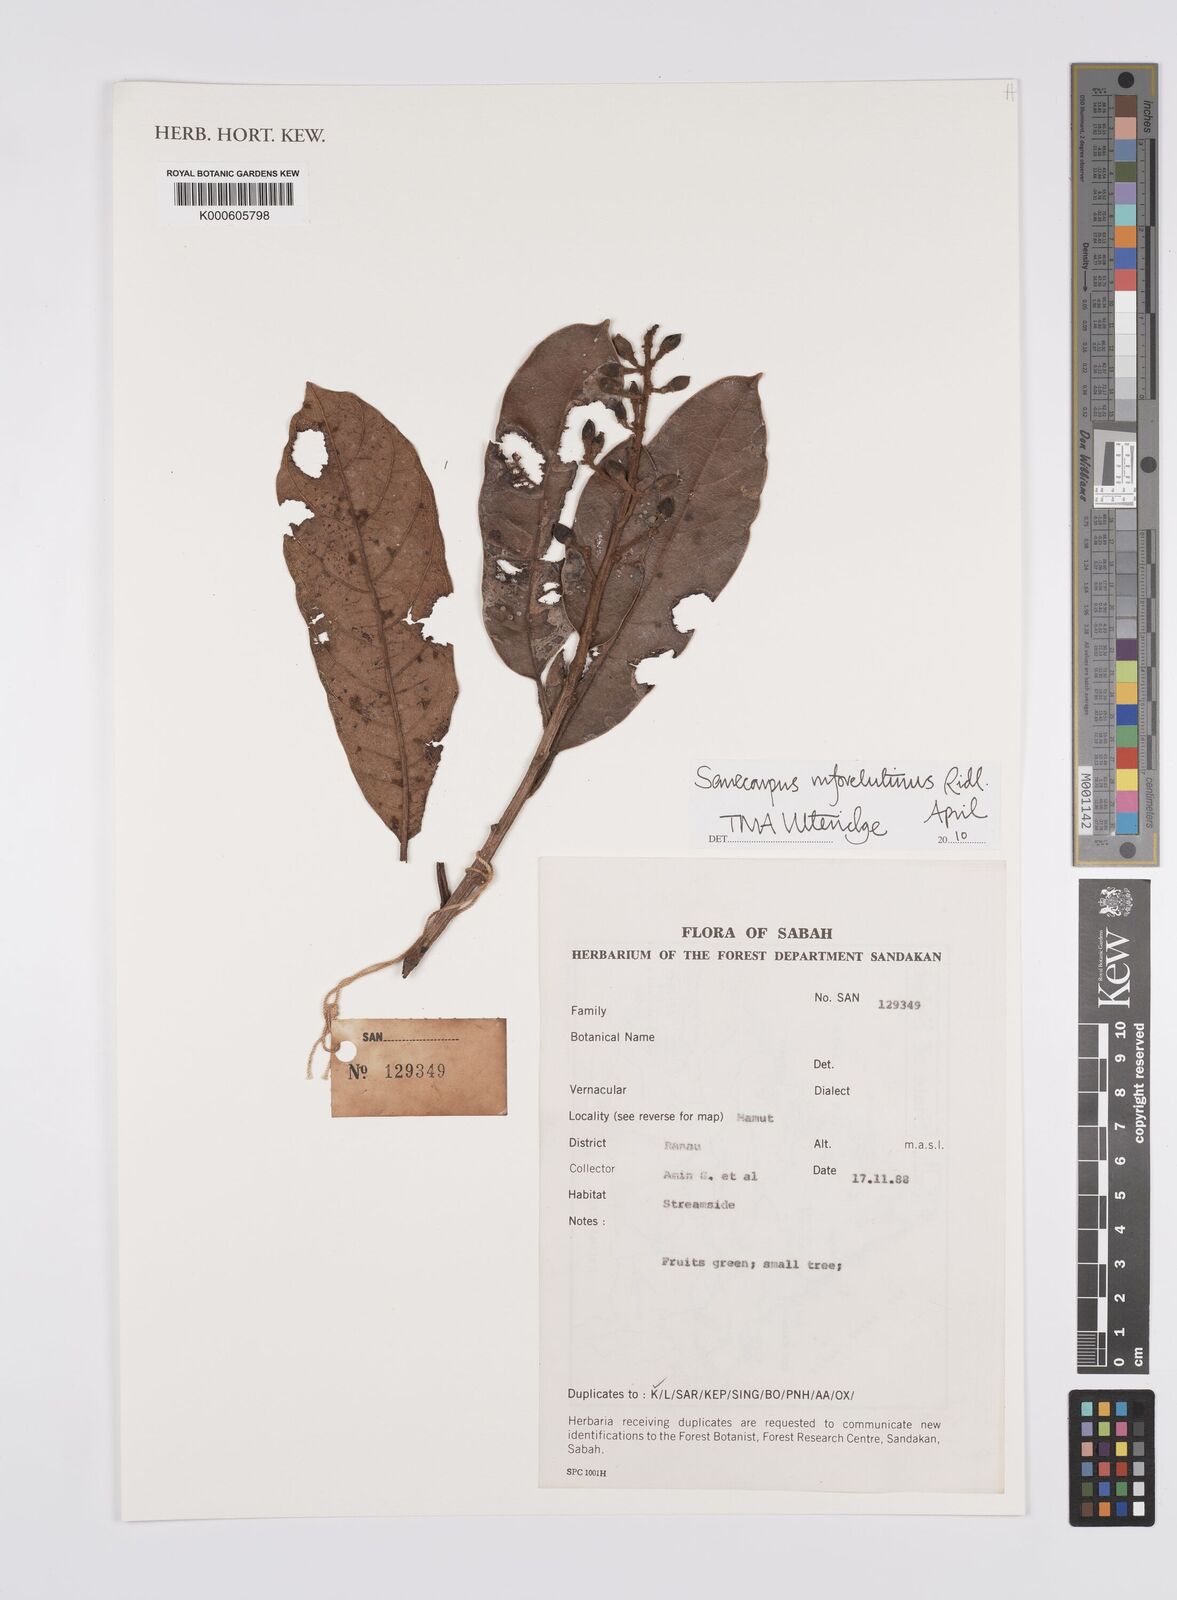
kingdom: Plantae
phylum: Tracheophyta
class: Magnoliopsida
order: Sapindales
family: Anacardiaceae
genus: Semecarpus
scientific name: Semecarpus rufovelutinus
